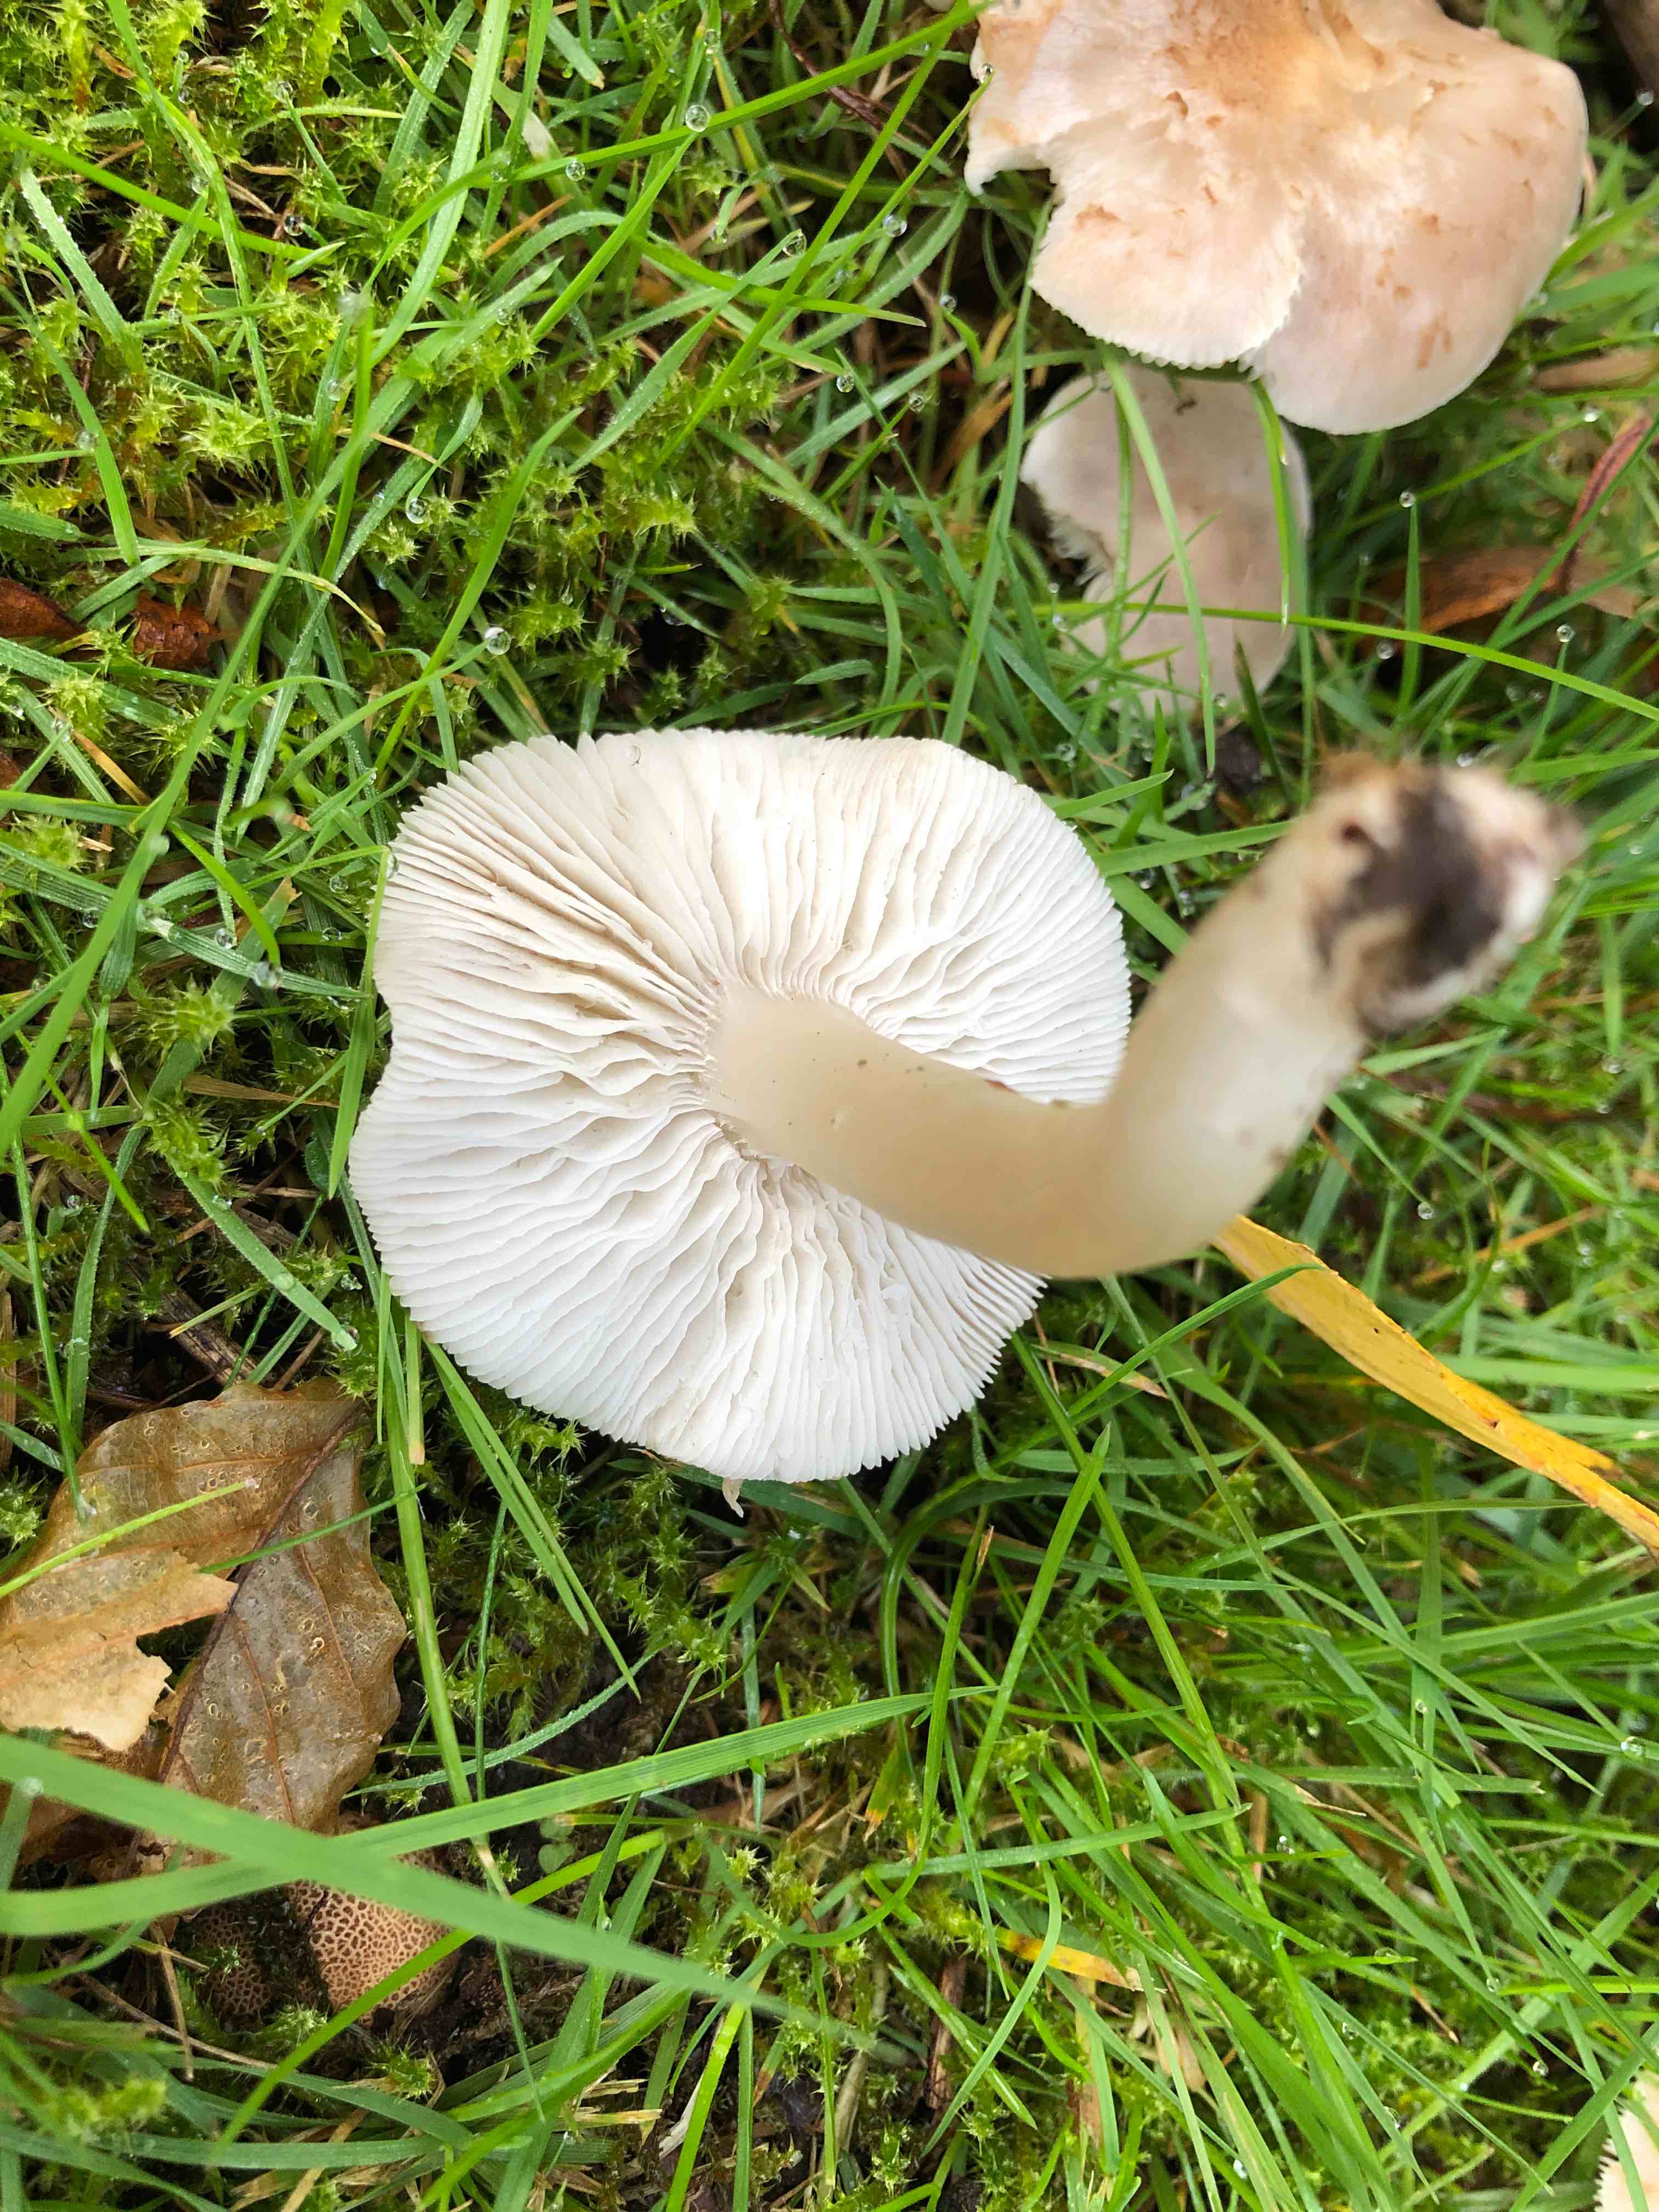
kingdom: Fungi
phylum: Basidiomycota
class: Agaricomycetes
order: Agaricales
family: Tricholomataceae
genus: Tricholoma
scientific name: Tricholoma argyraceum
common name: spids ridderhat
